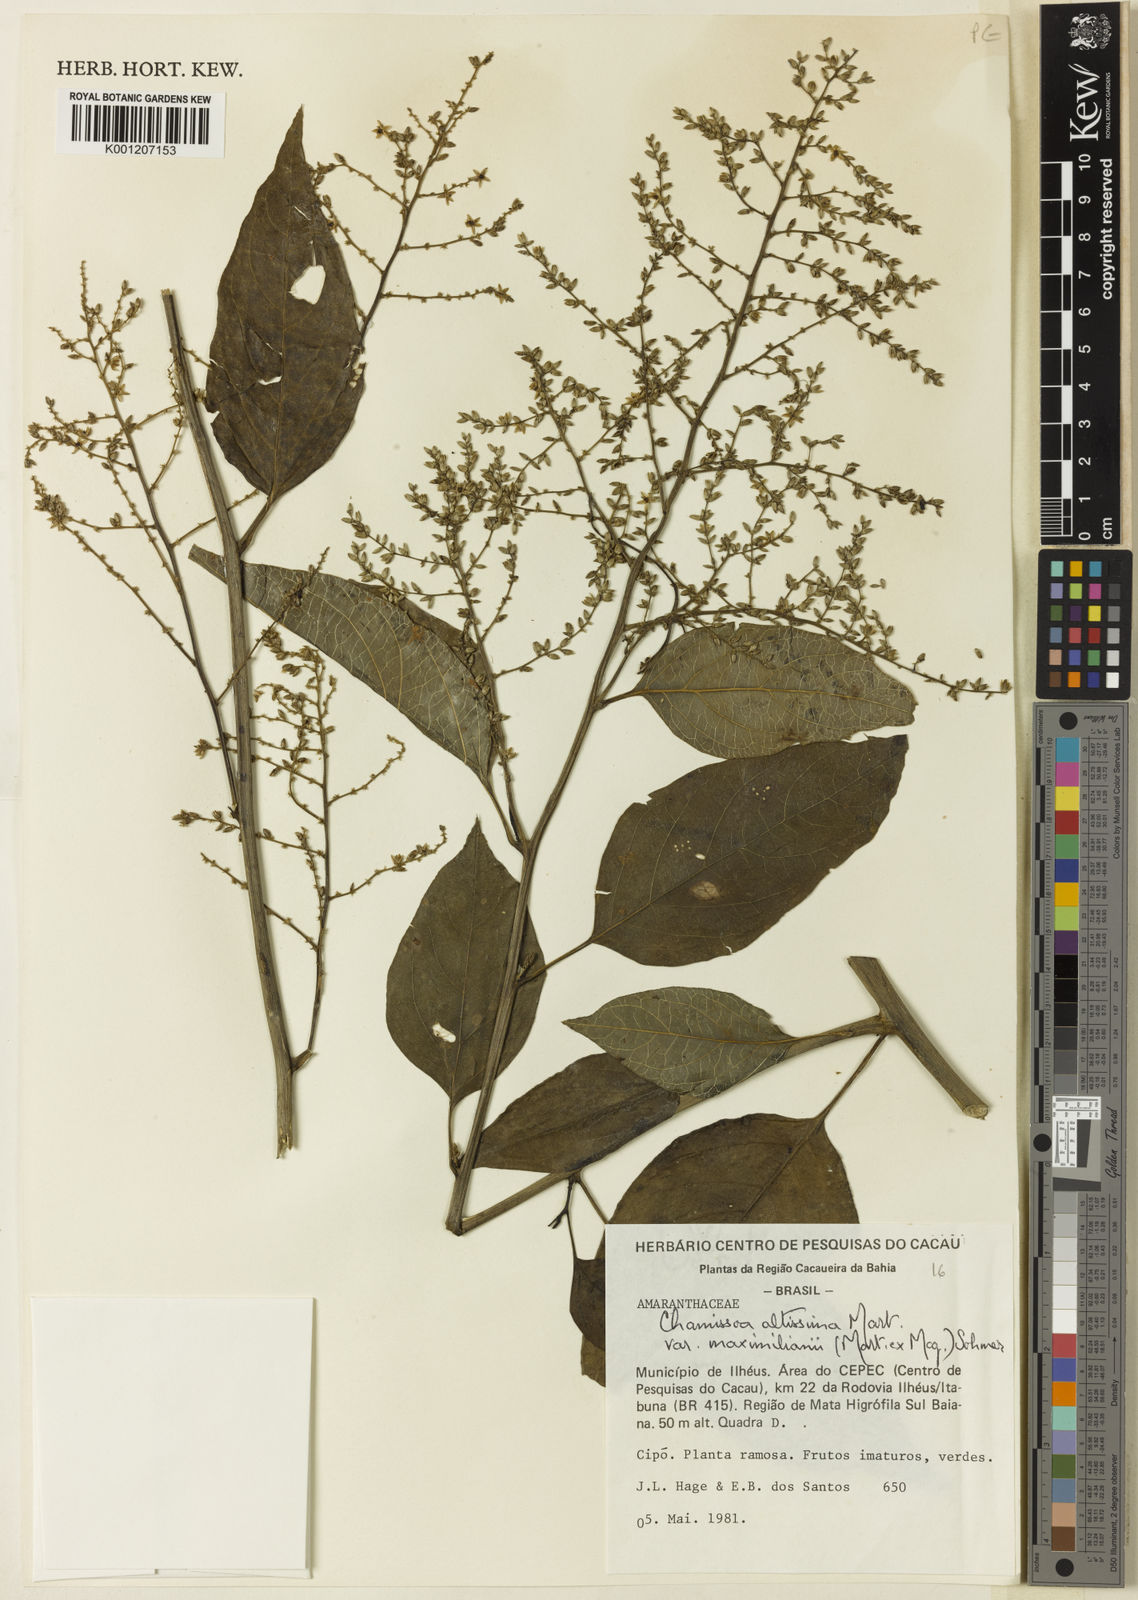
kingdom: Plantae
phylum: Tracheophyta
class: Magnoliopsida
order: Caryophyllales
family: Amaranthaceae
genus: Chamissoa
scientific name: Chamissoa altissima
